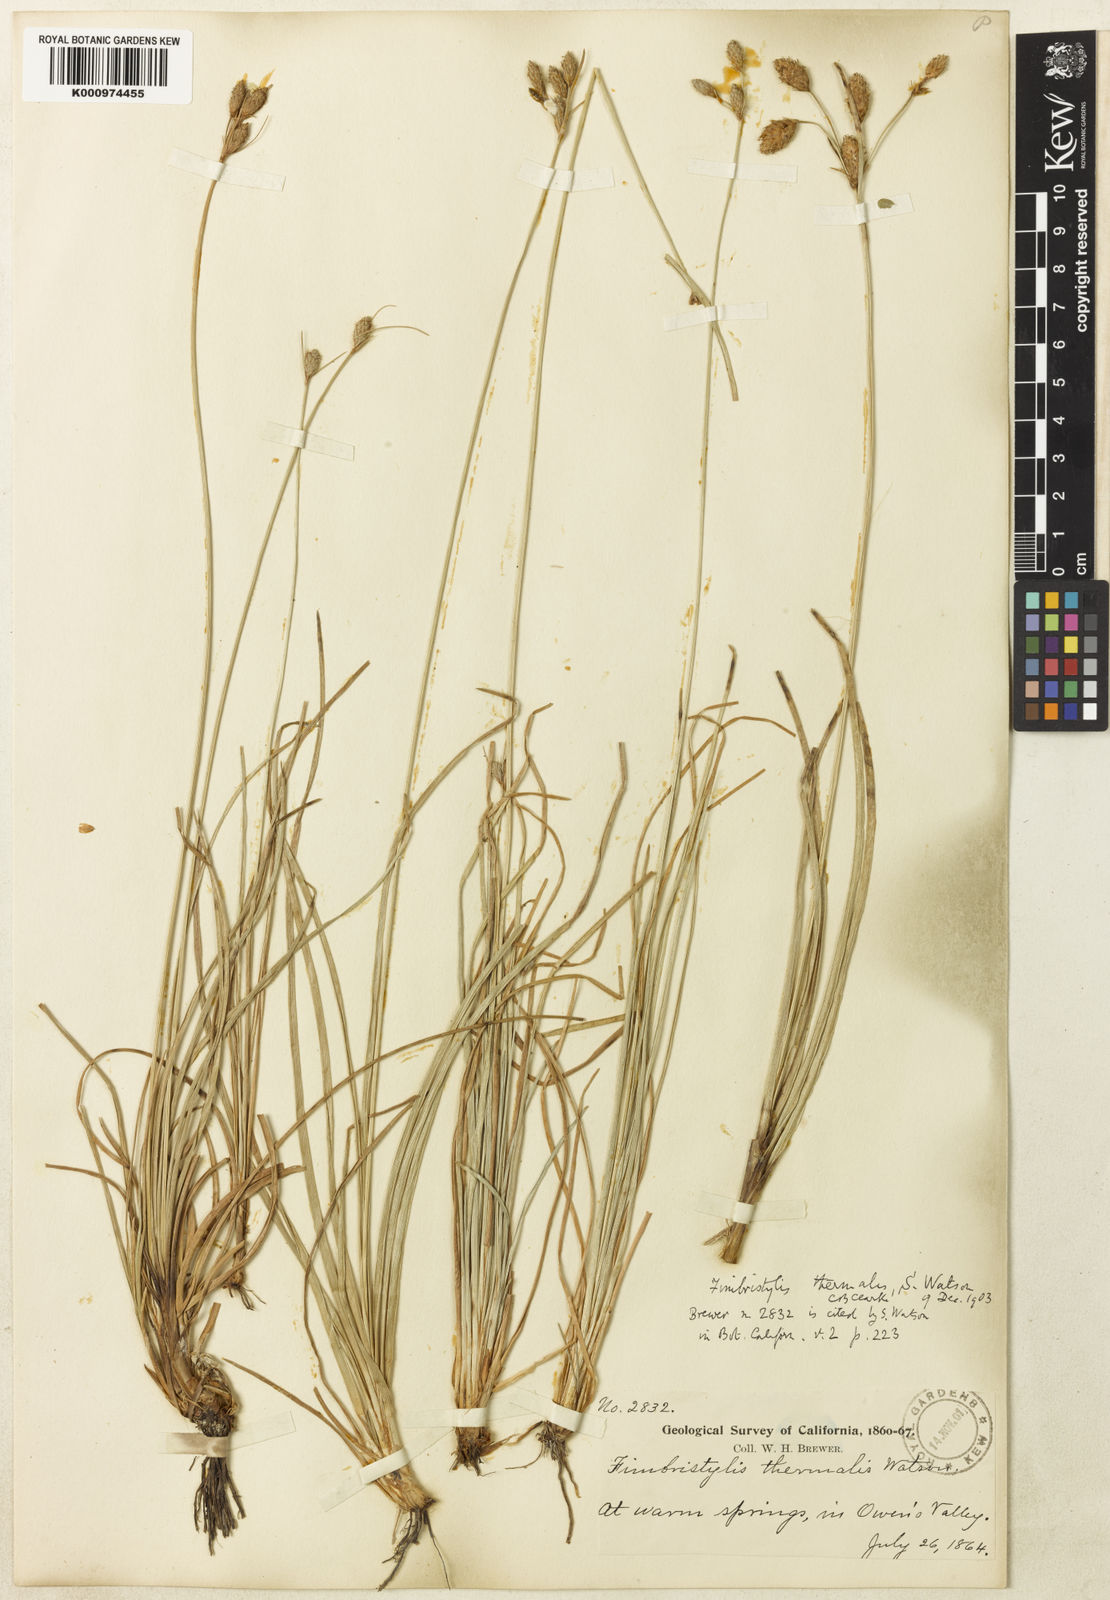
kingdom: Plantae
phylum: Tracheophyta
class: Liliopsida
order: Poales
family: Cyperaceae
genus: Fimbristylis
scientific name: Fimbristylis thermalis
